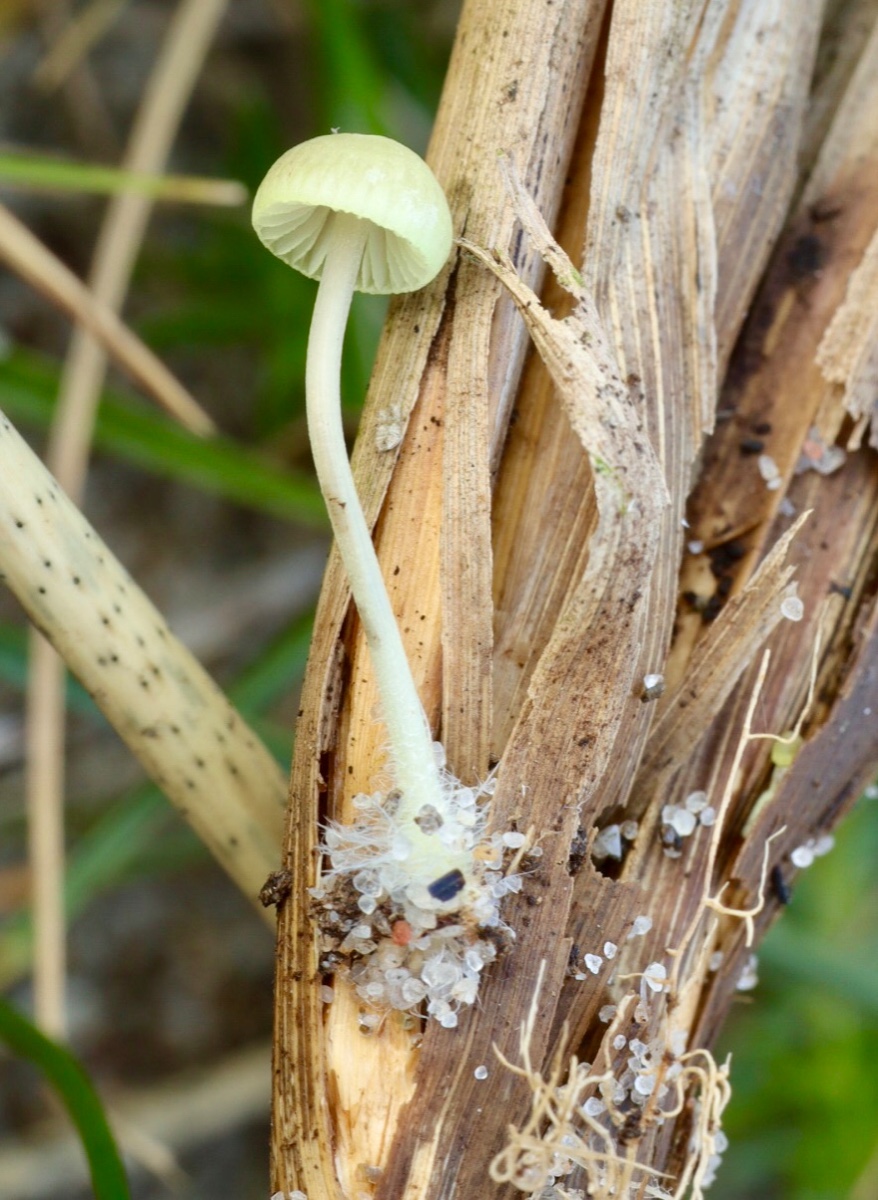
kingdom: Fungi
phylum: Basidiomycota
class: Agaricomycetes
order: Agaricales
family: Mycenaceae
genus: Mycena
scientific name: Mycena chlorantha
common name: klit-huesvamp
